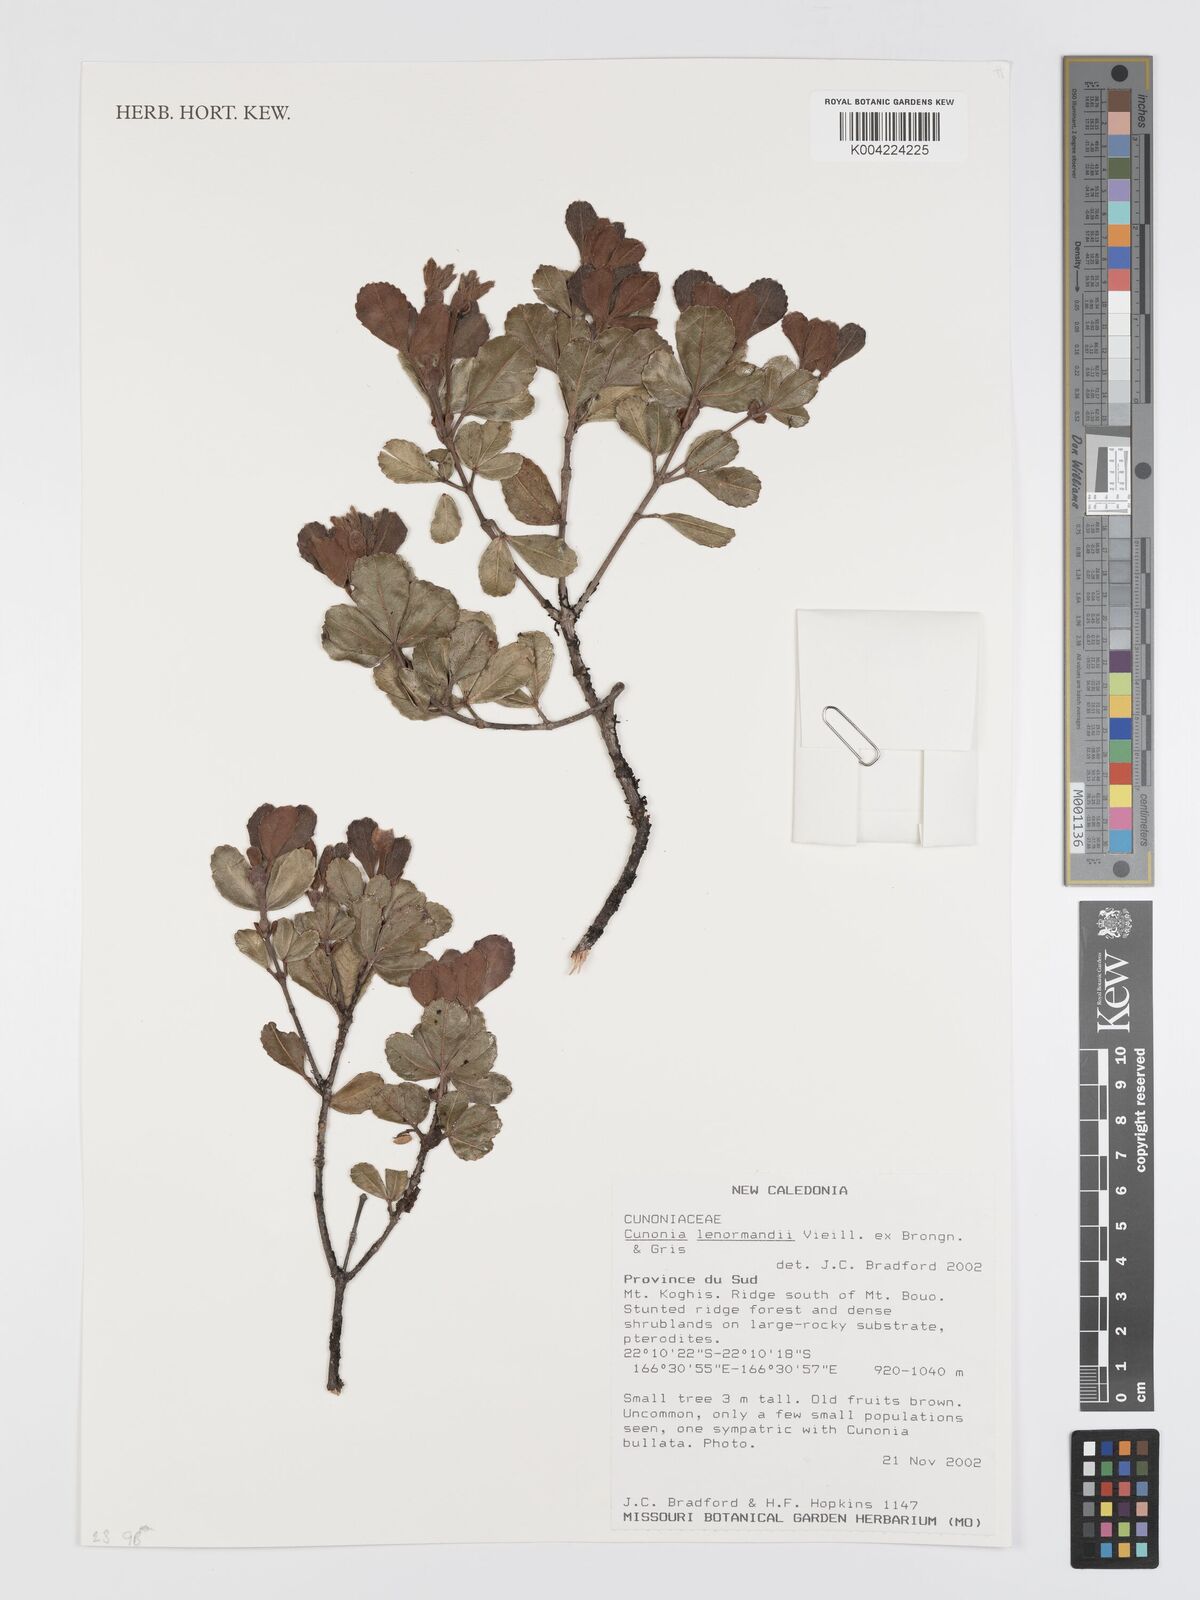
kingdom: Plantae
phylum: Tracheophyta
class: Magnoliopsida
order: Oxalidales
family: Cunoniaceae
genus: Cunonia
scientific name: Cunonia lenormandii
